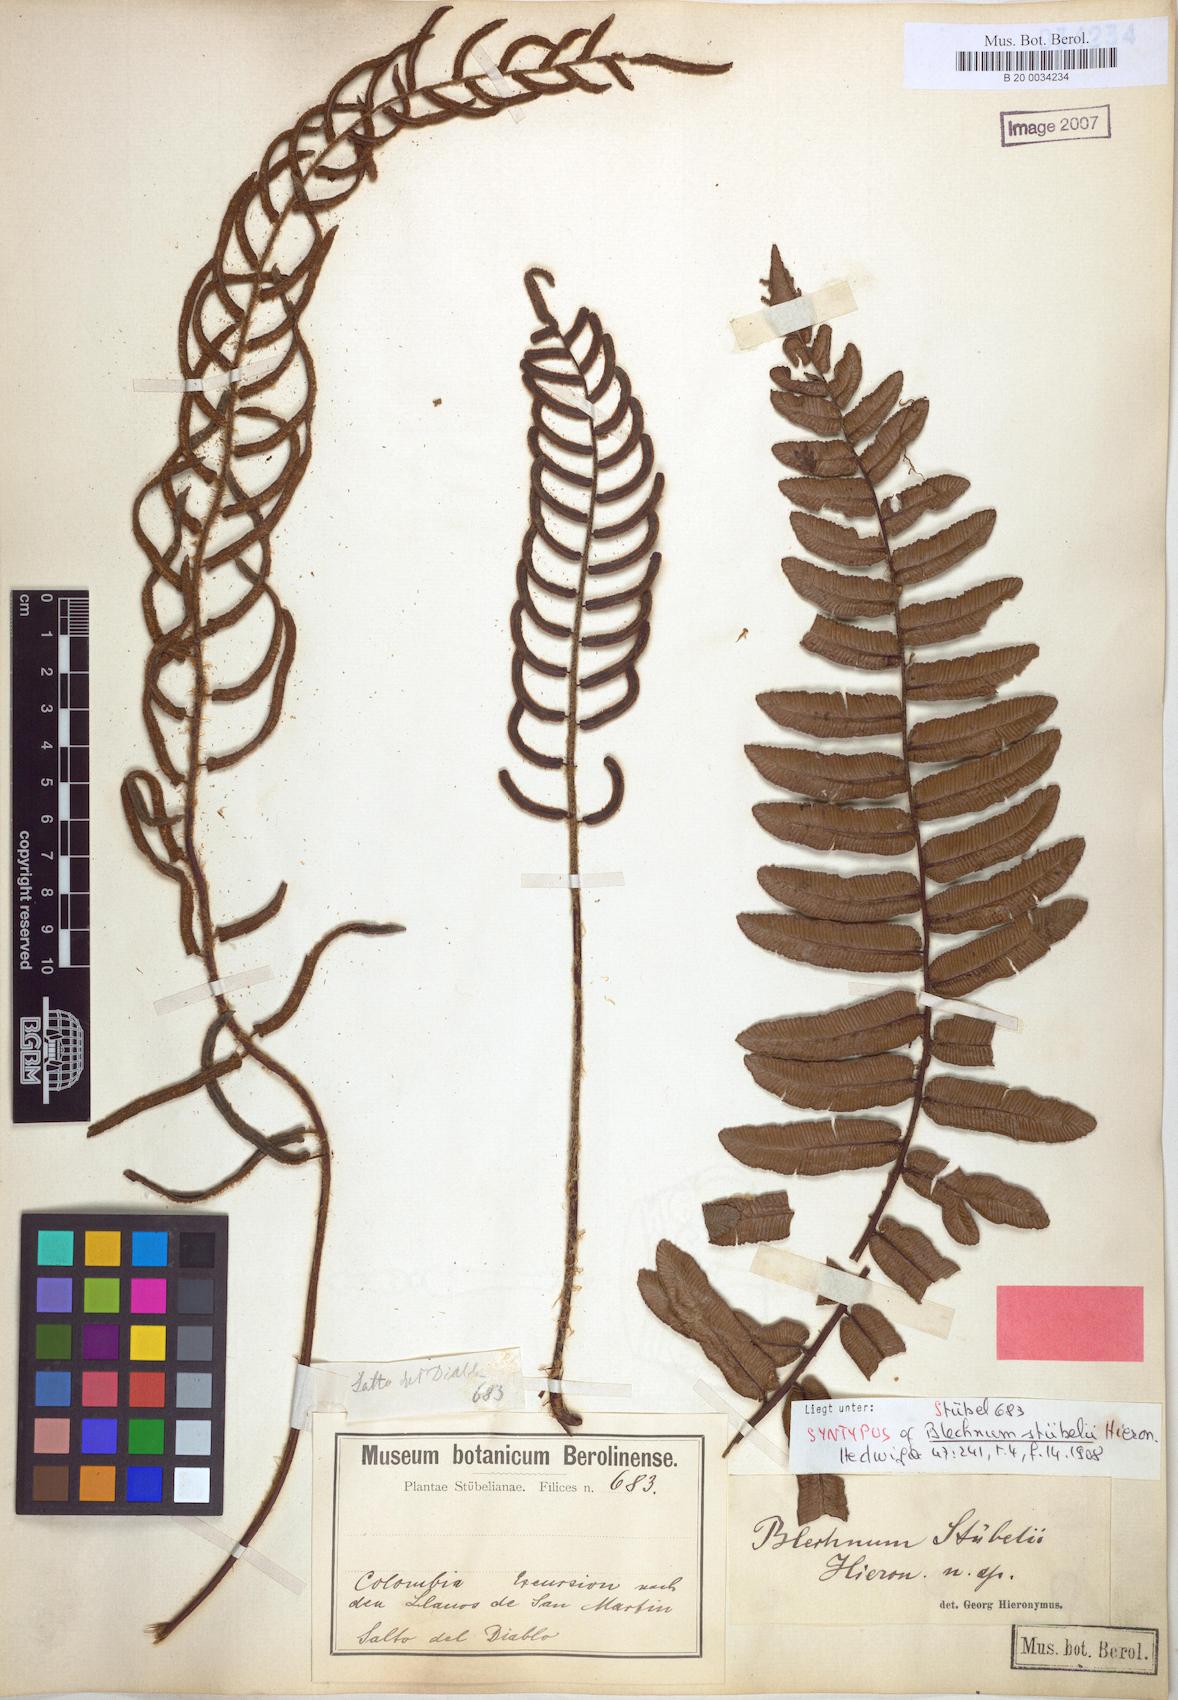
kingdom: Plantae
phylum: Tracheophyta
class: Polypodiopsida
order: Polypodiales
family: Blechnaceae
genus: Parablechnum
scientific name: Parablechnum stuebelii
